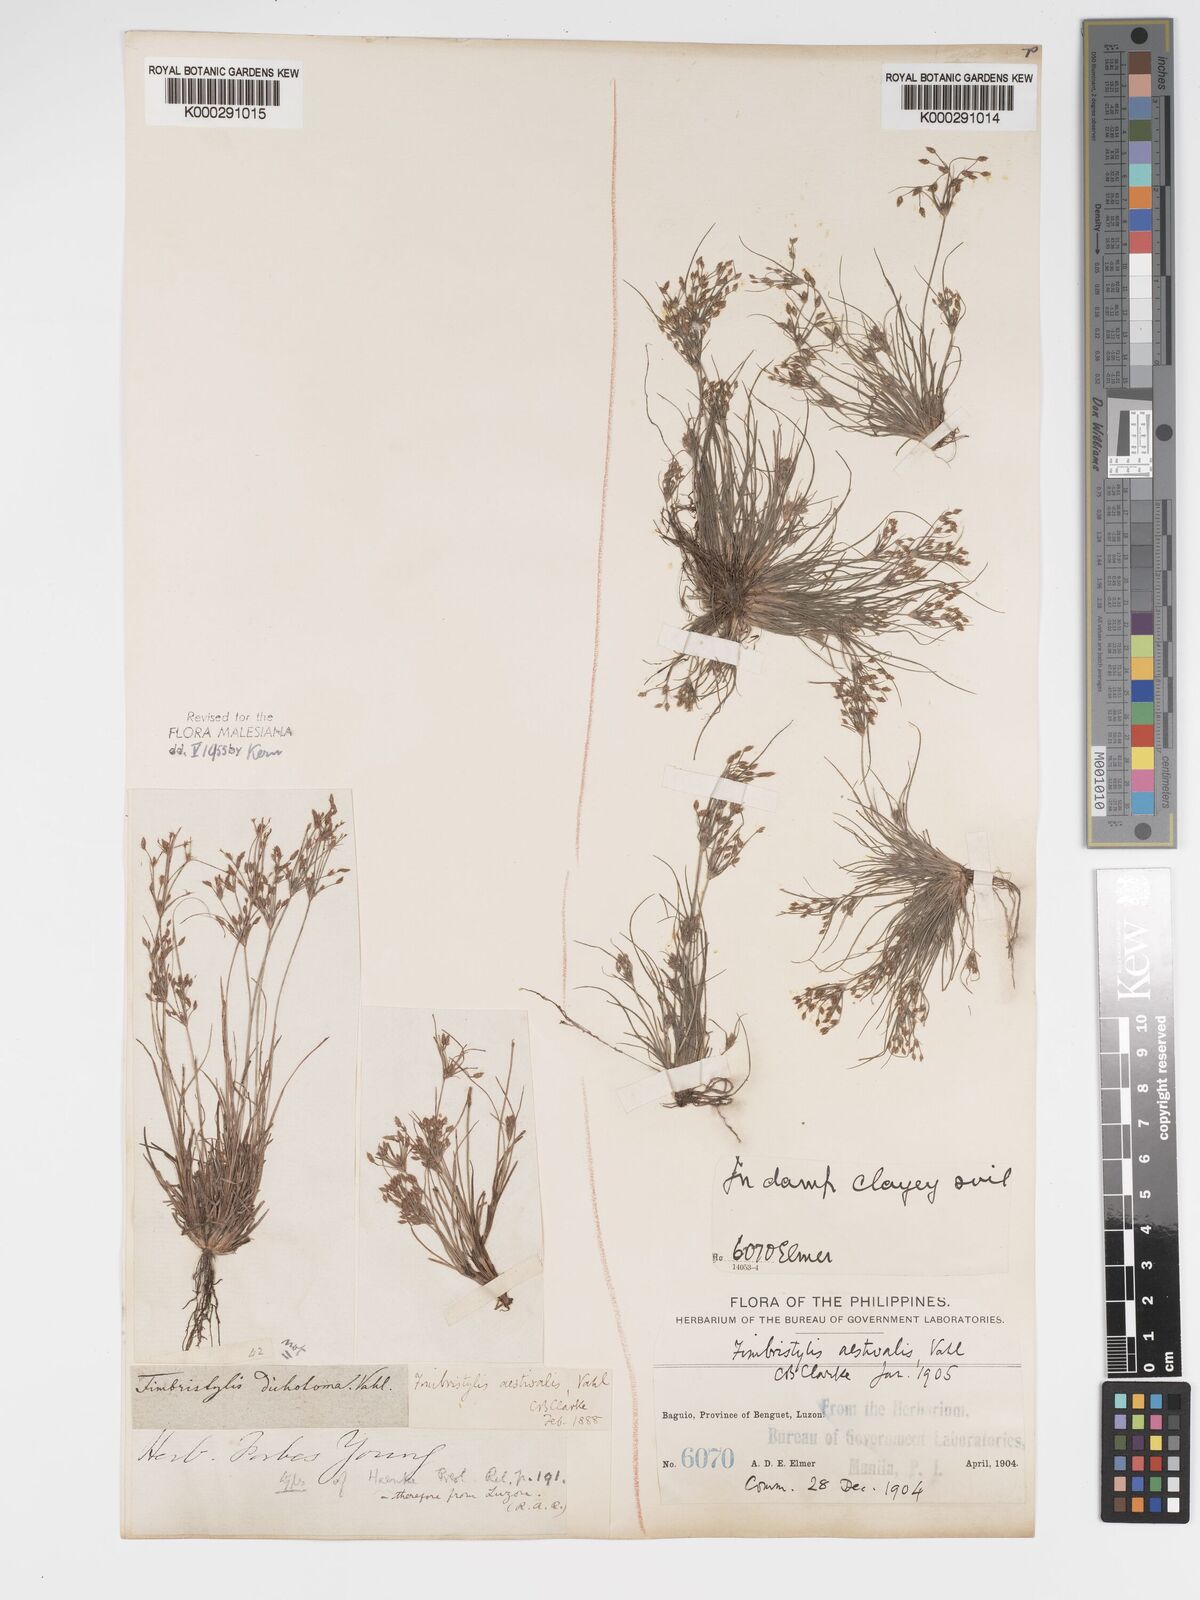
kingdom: Plantae
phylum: Tracheophyta
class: Liliopsida
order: Poales
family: Cyperaceae
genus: Fimbristylis
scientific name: Fimbristylis aestivalis
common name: Summer fimbry
